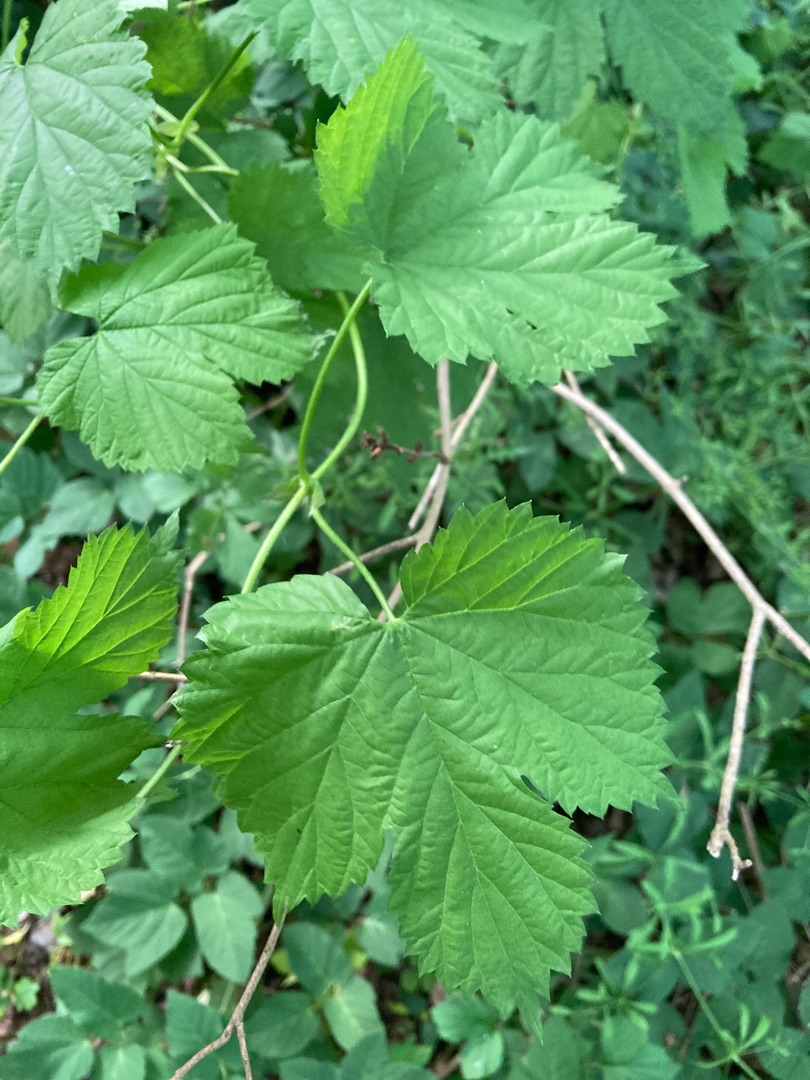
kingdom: Plantae
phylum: Tracheophyta
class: Magnoliopsida
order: Rosales
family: Cannabaceae
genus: Humulus
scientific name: Humulus lupulus
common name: Humle
